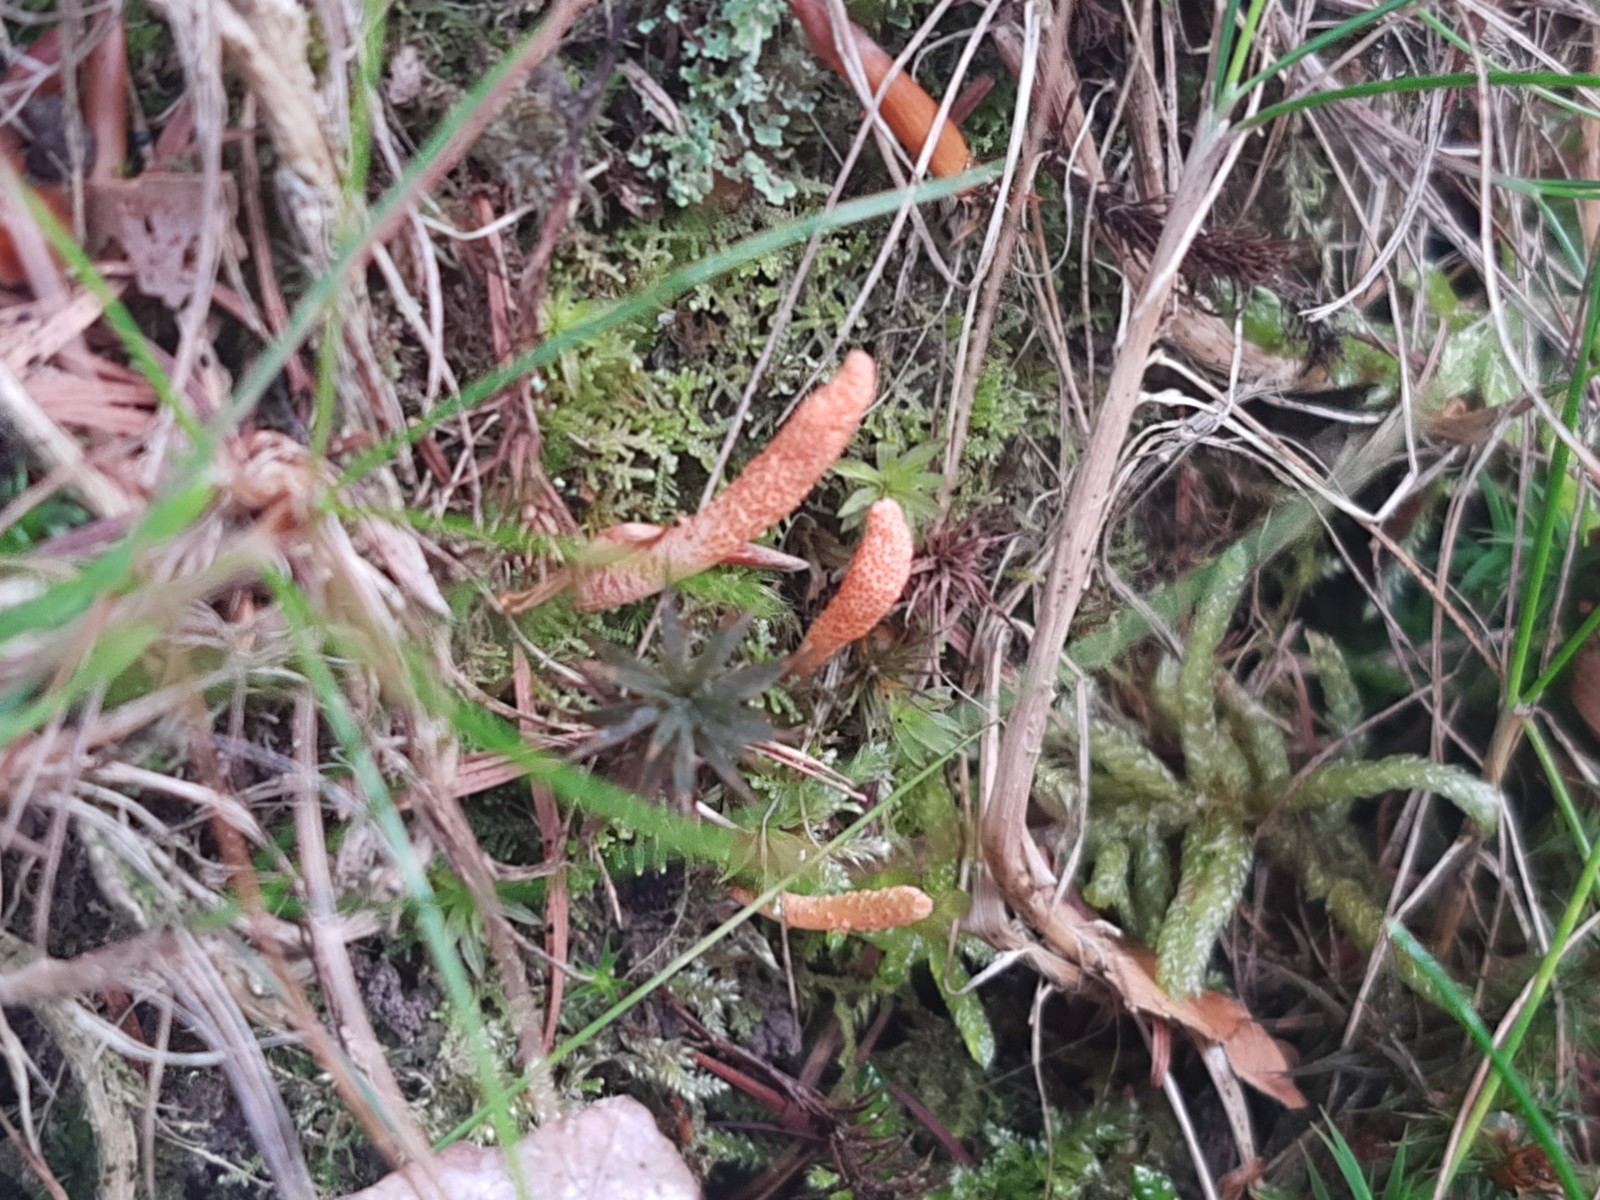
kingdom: Fungi
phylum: Ascomycota
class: Sordariomycetes
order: Hypocreales
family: Cordycipitaceae
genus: Cordyceps
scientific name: Cordyceps militaris
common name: puppe-snyltekølle
